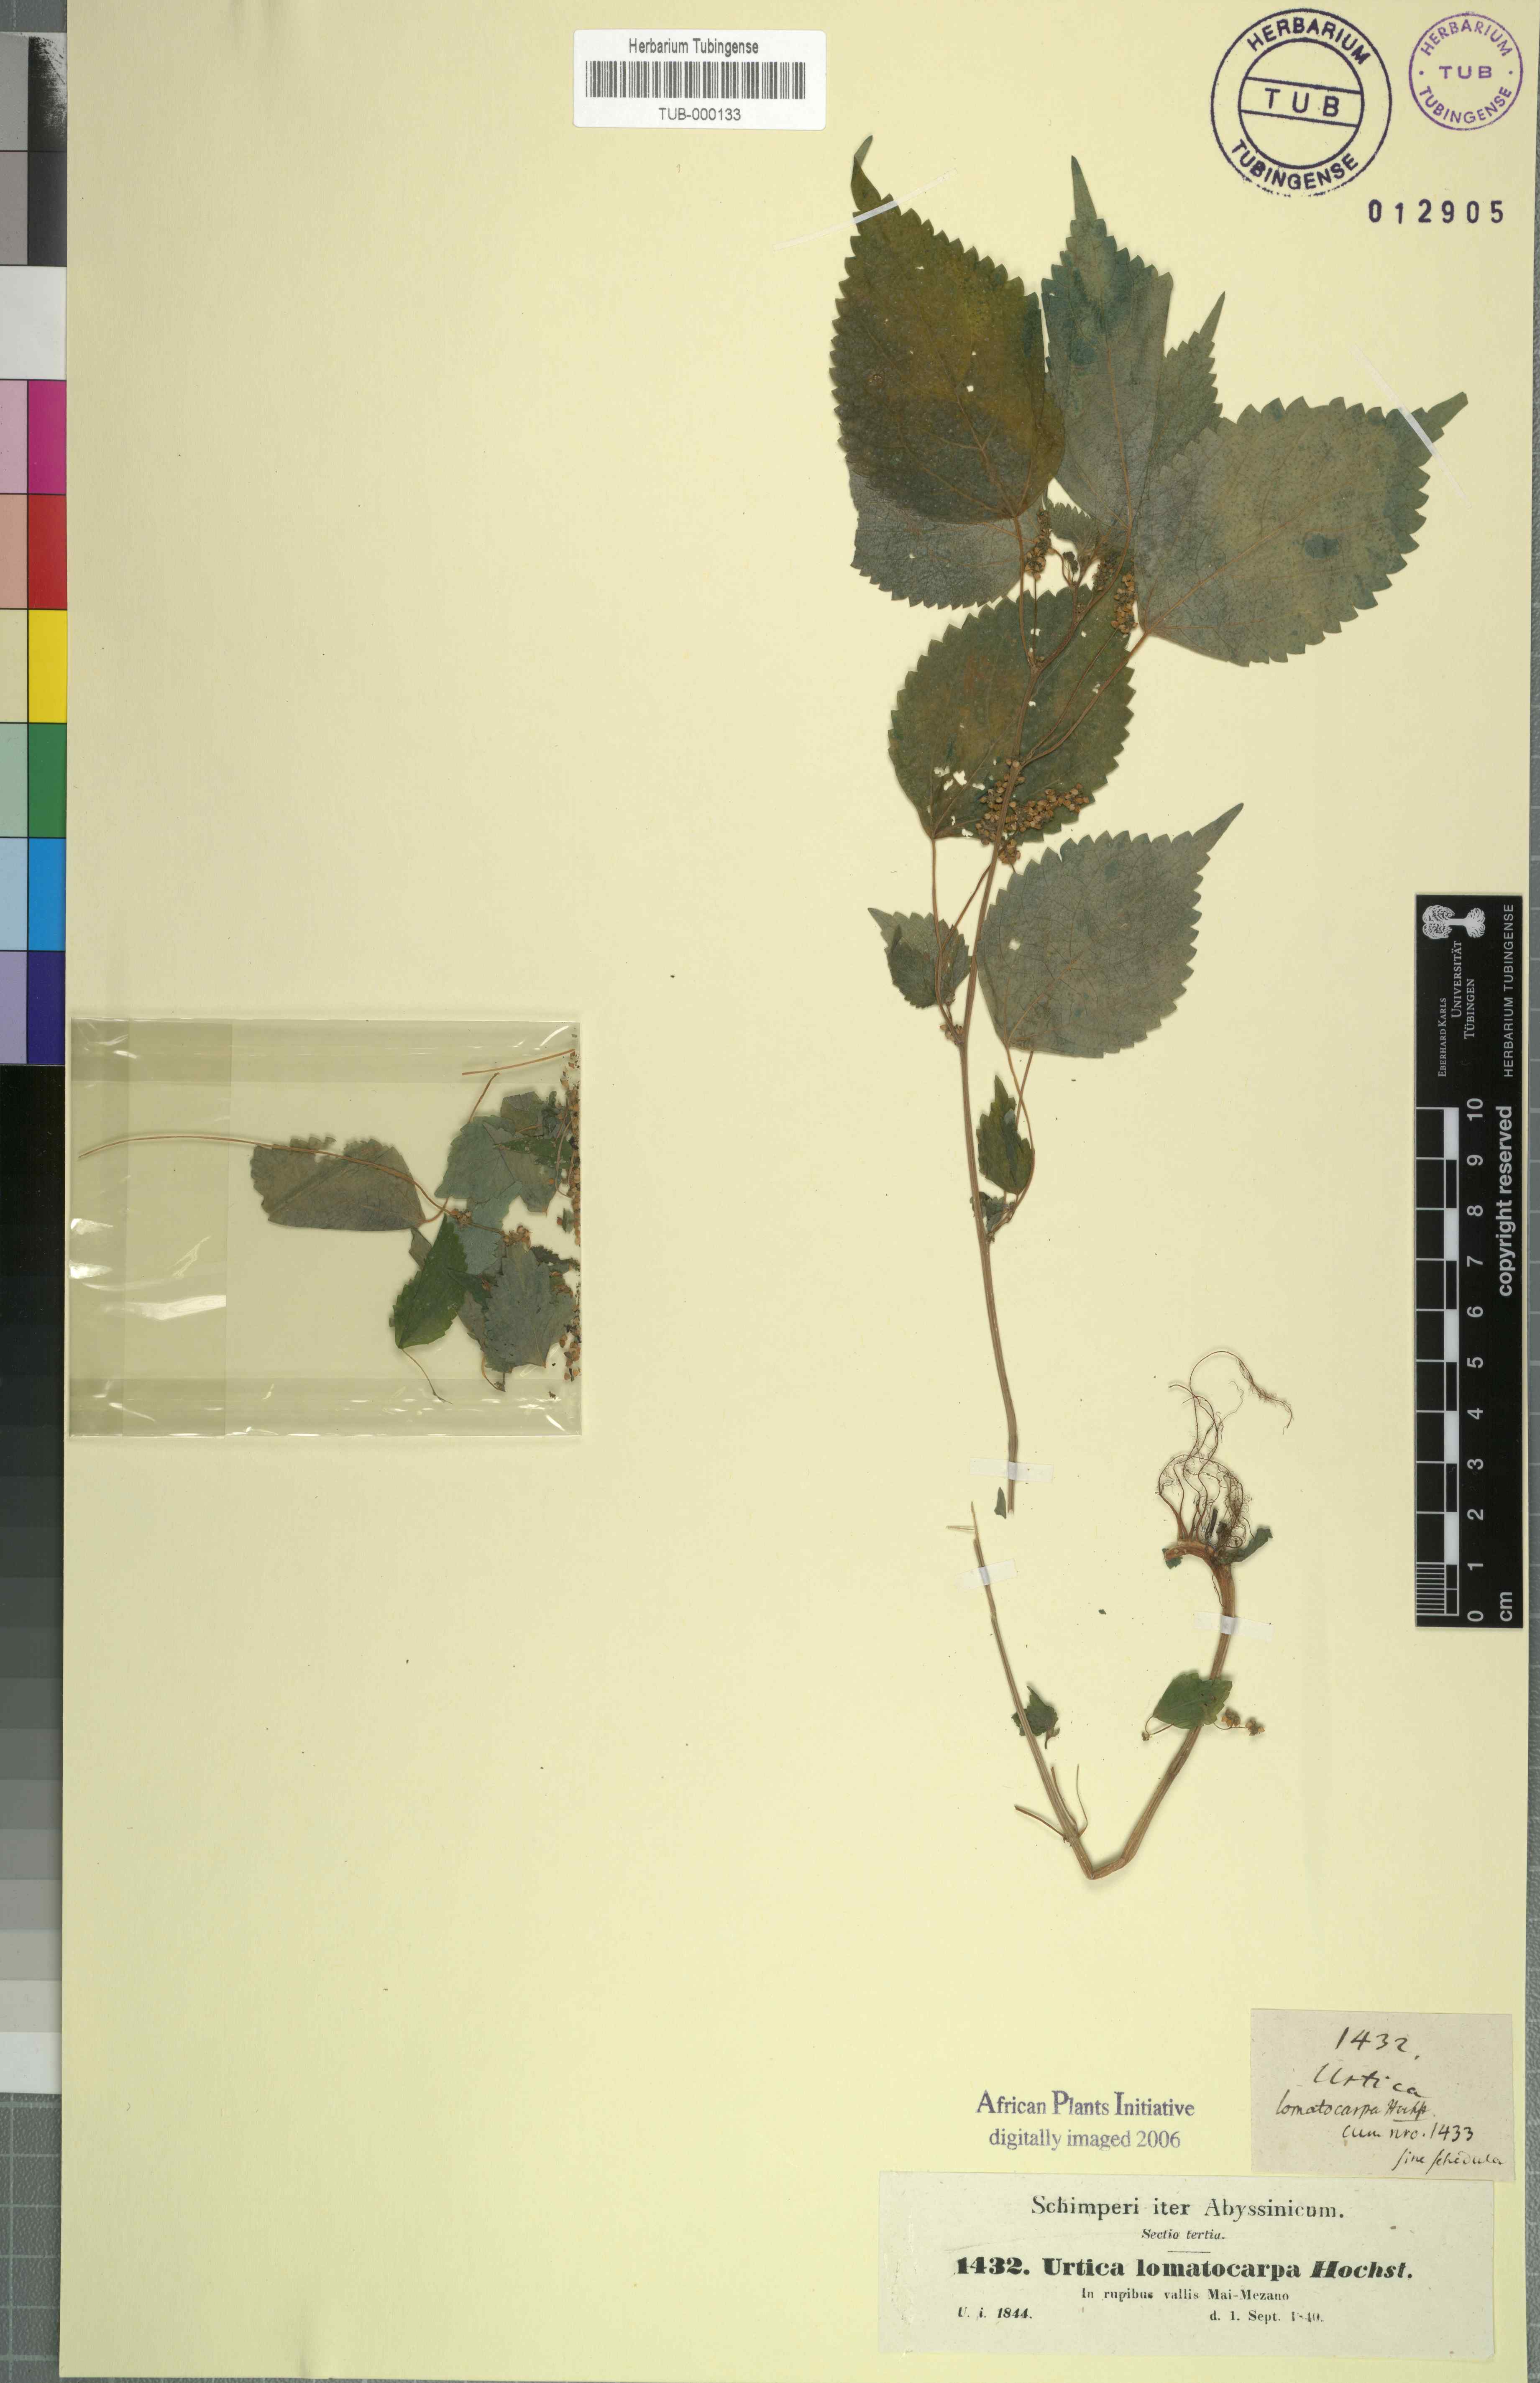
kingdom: Plantae
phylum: Tracheophyta
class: Magnoliopsida
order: Rosales
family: Urticaceae
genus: Laportea
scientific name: Laportea interrupta
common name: Hawaiian wood-nettle
